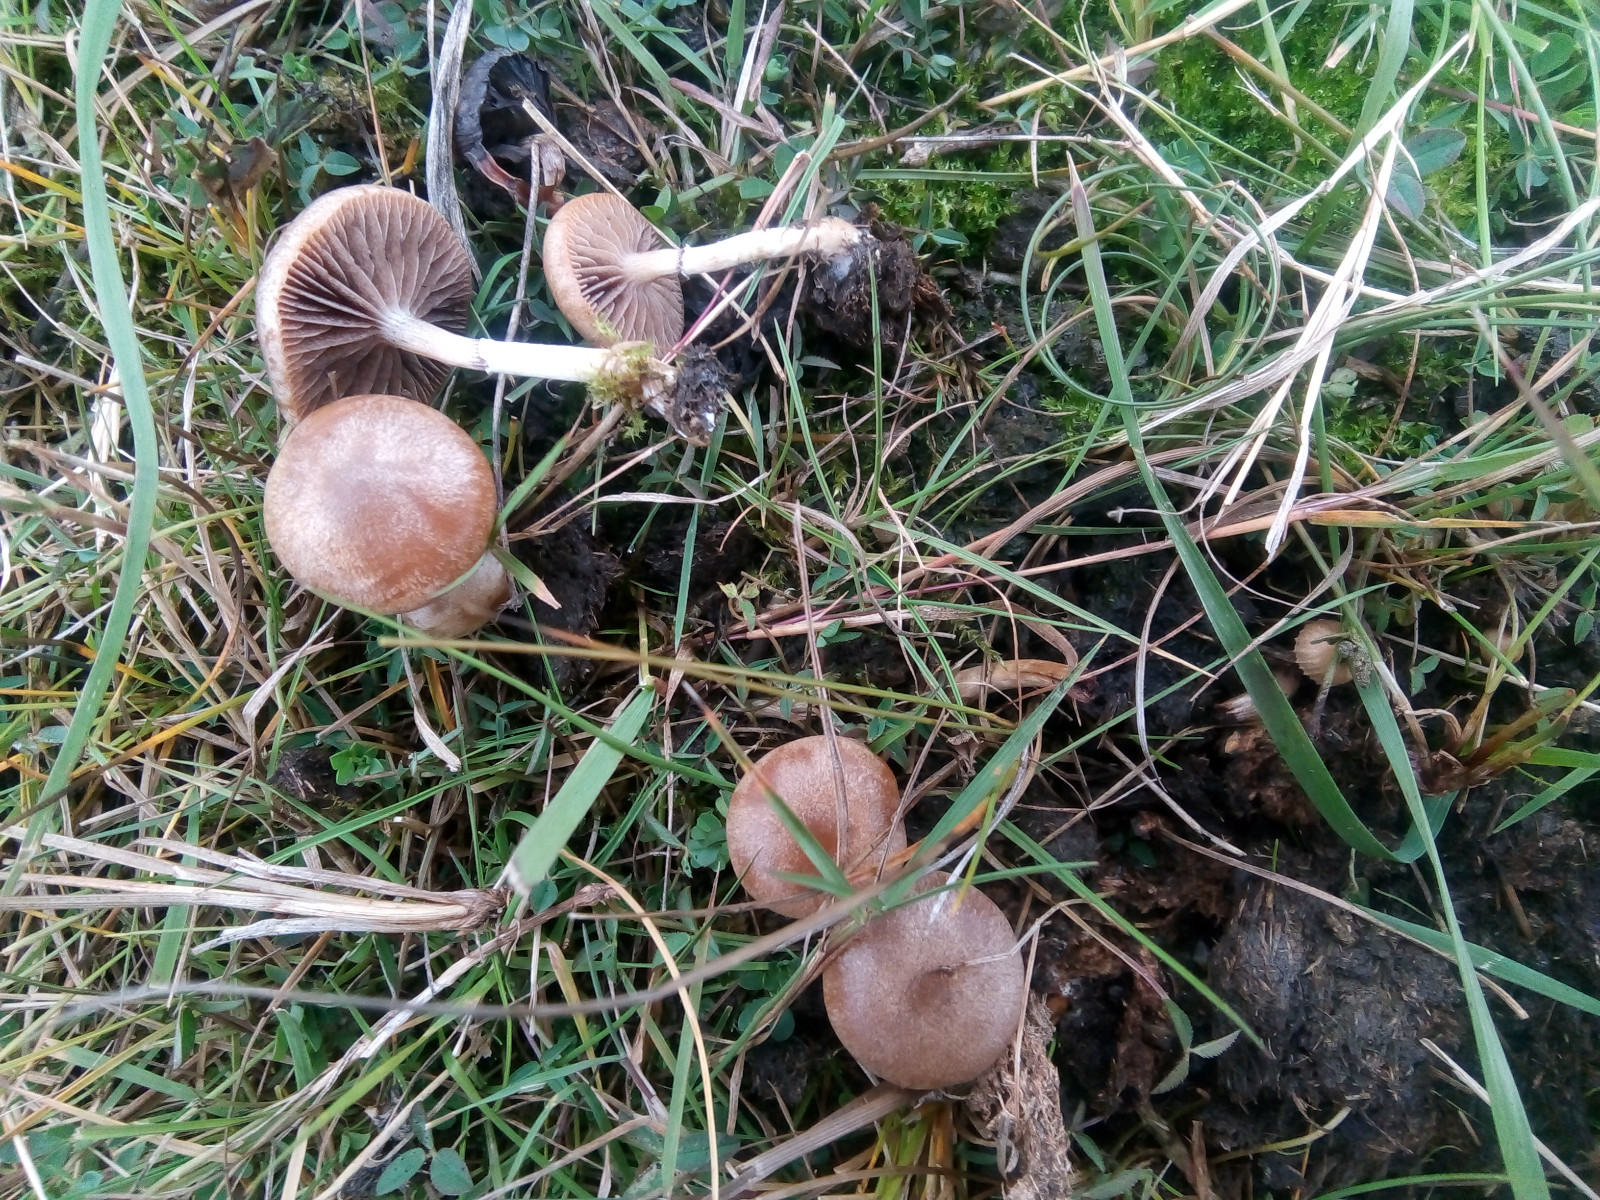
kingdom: Fungi
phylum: Basidiomycota
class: Agaricomycetes
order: Agaricales
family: Strophariaceae
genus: Deconica
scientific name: Deconica merdaria
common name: møg-stråhat
